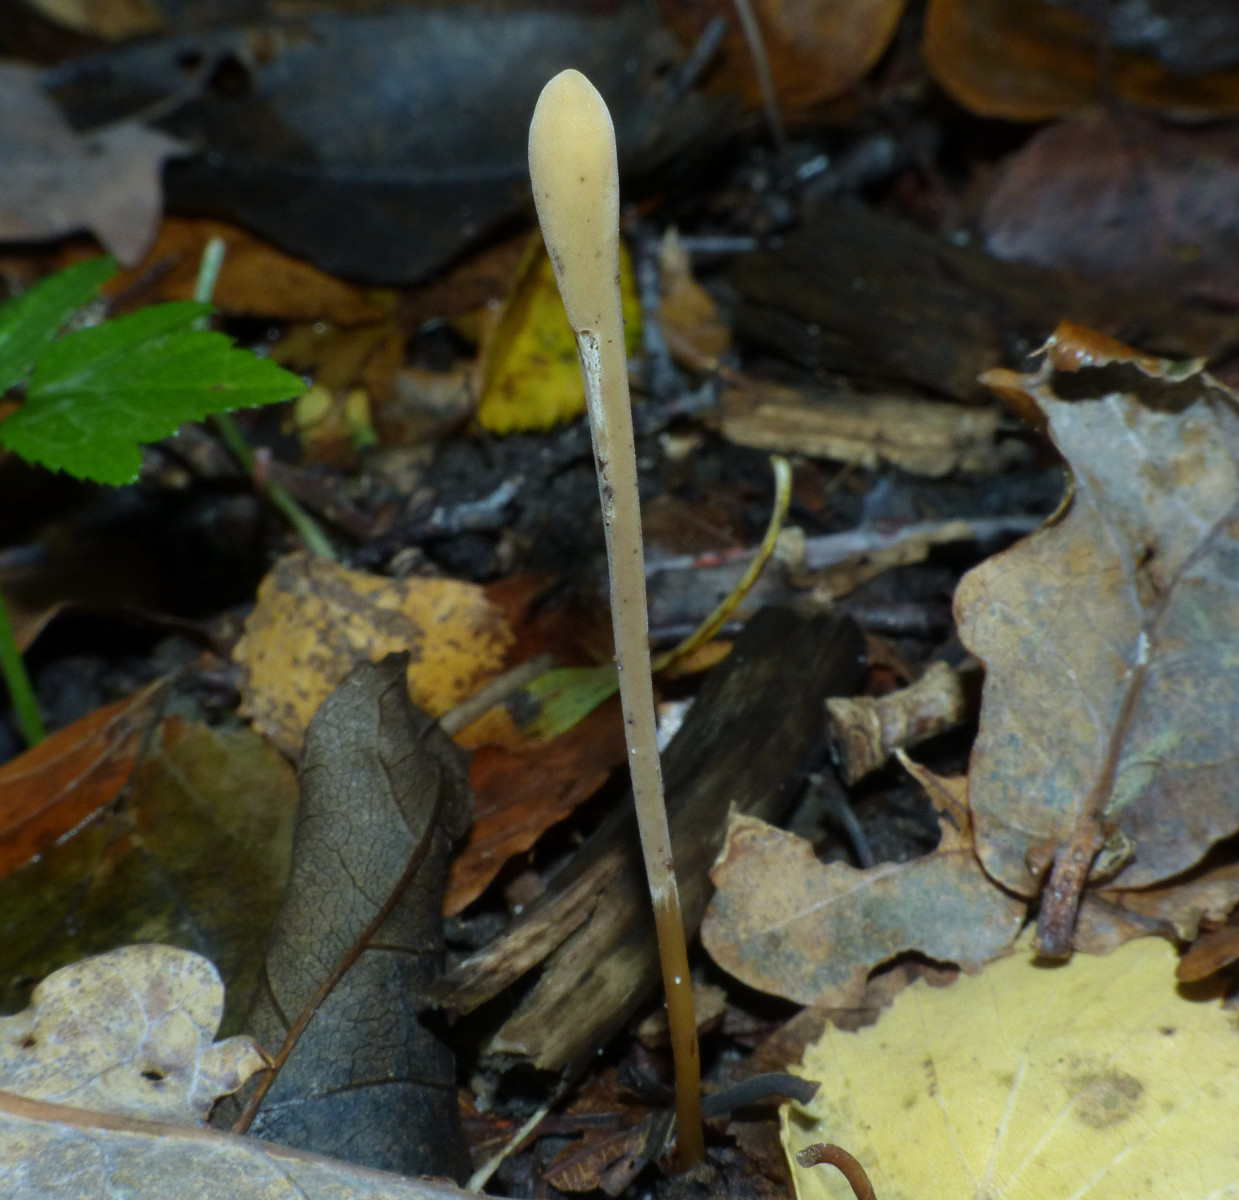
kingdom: Fungi
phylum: Basidiomycota
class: Agaricomycetes
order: Agaricales
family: Typhulaceae
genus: Typhula
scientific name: Typhula fistulosa
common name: pibet rørkølle
